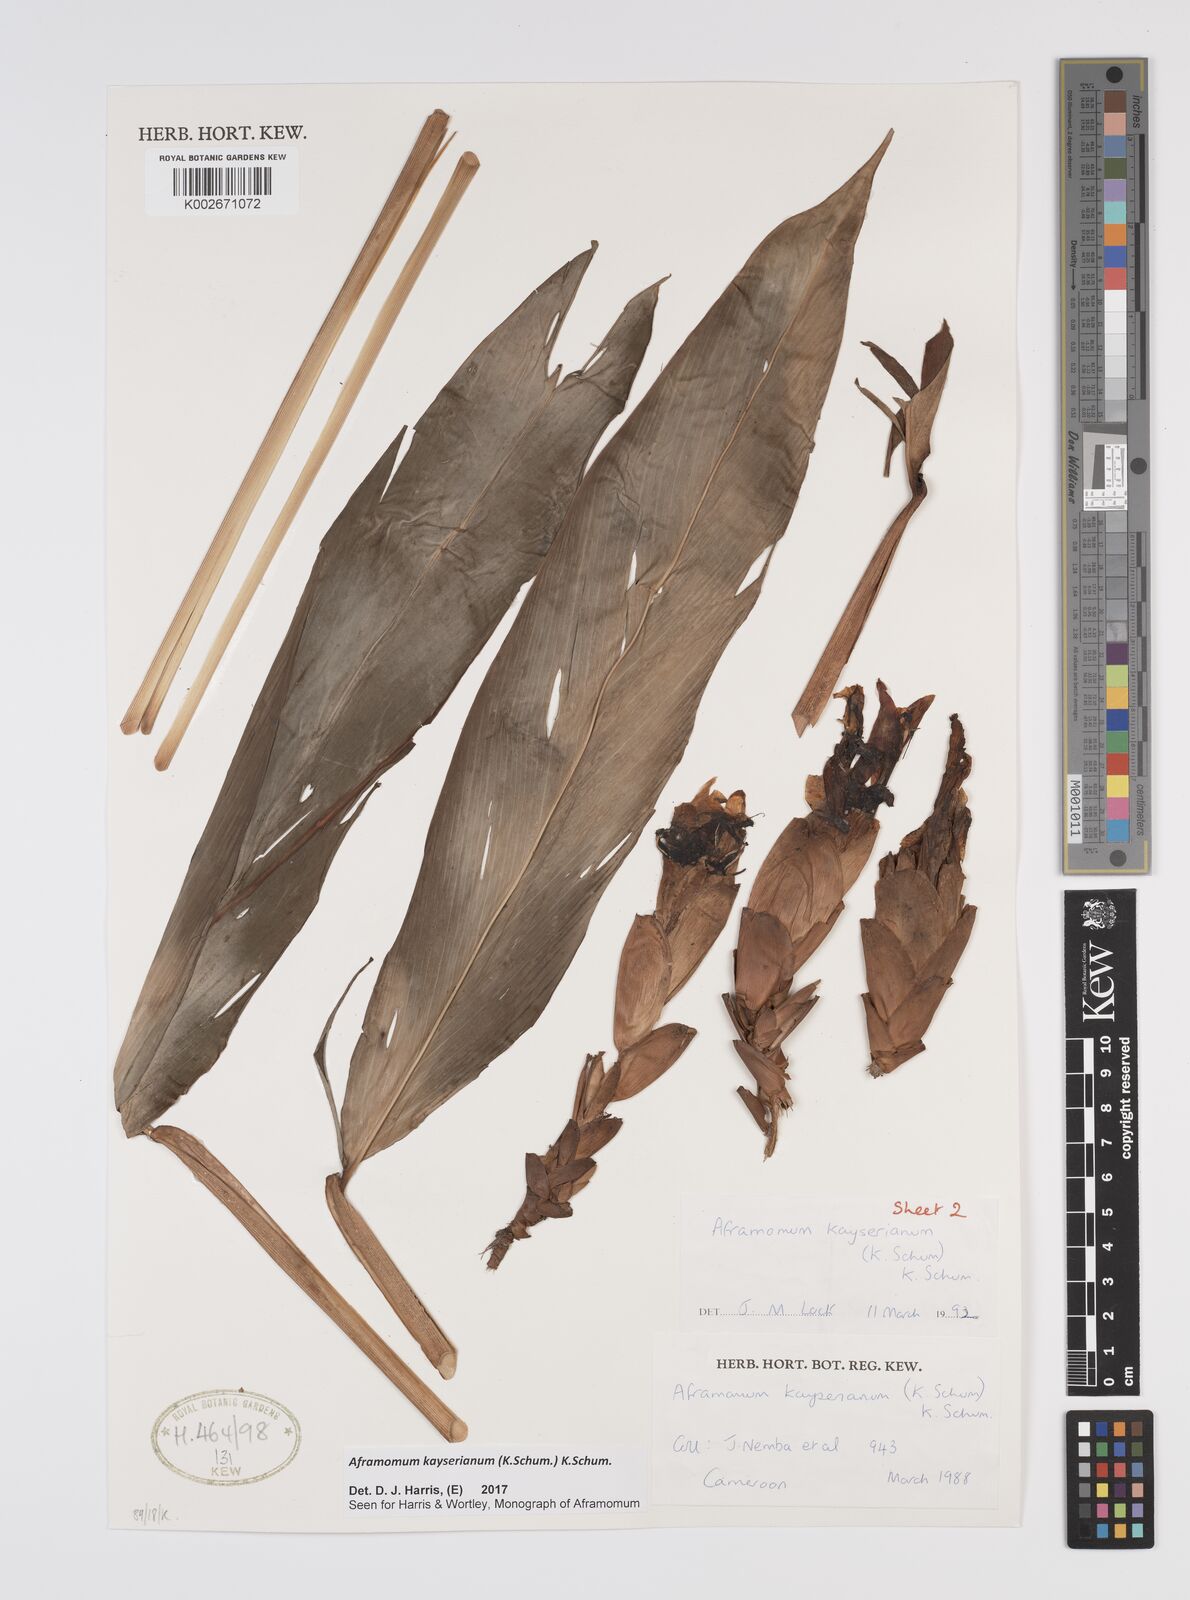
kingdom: Plantae
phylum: Tracheophyta
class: Liliopsida
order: Zingiberales
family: Zingiberaceae
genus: Aframomum
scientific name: Aframomum kayserianum
